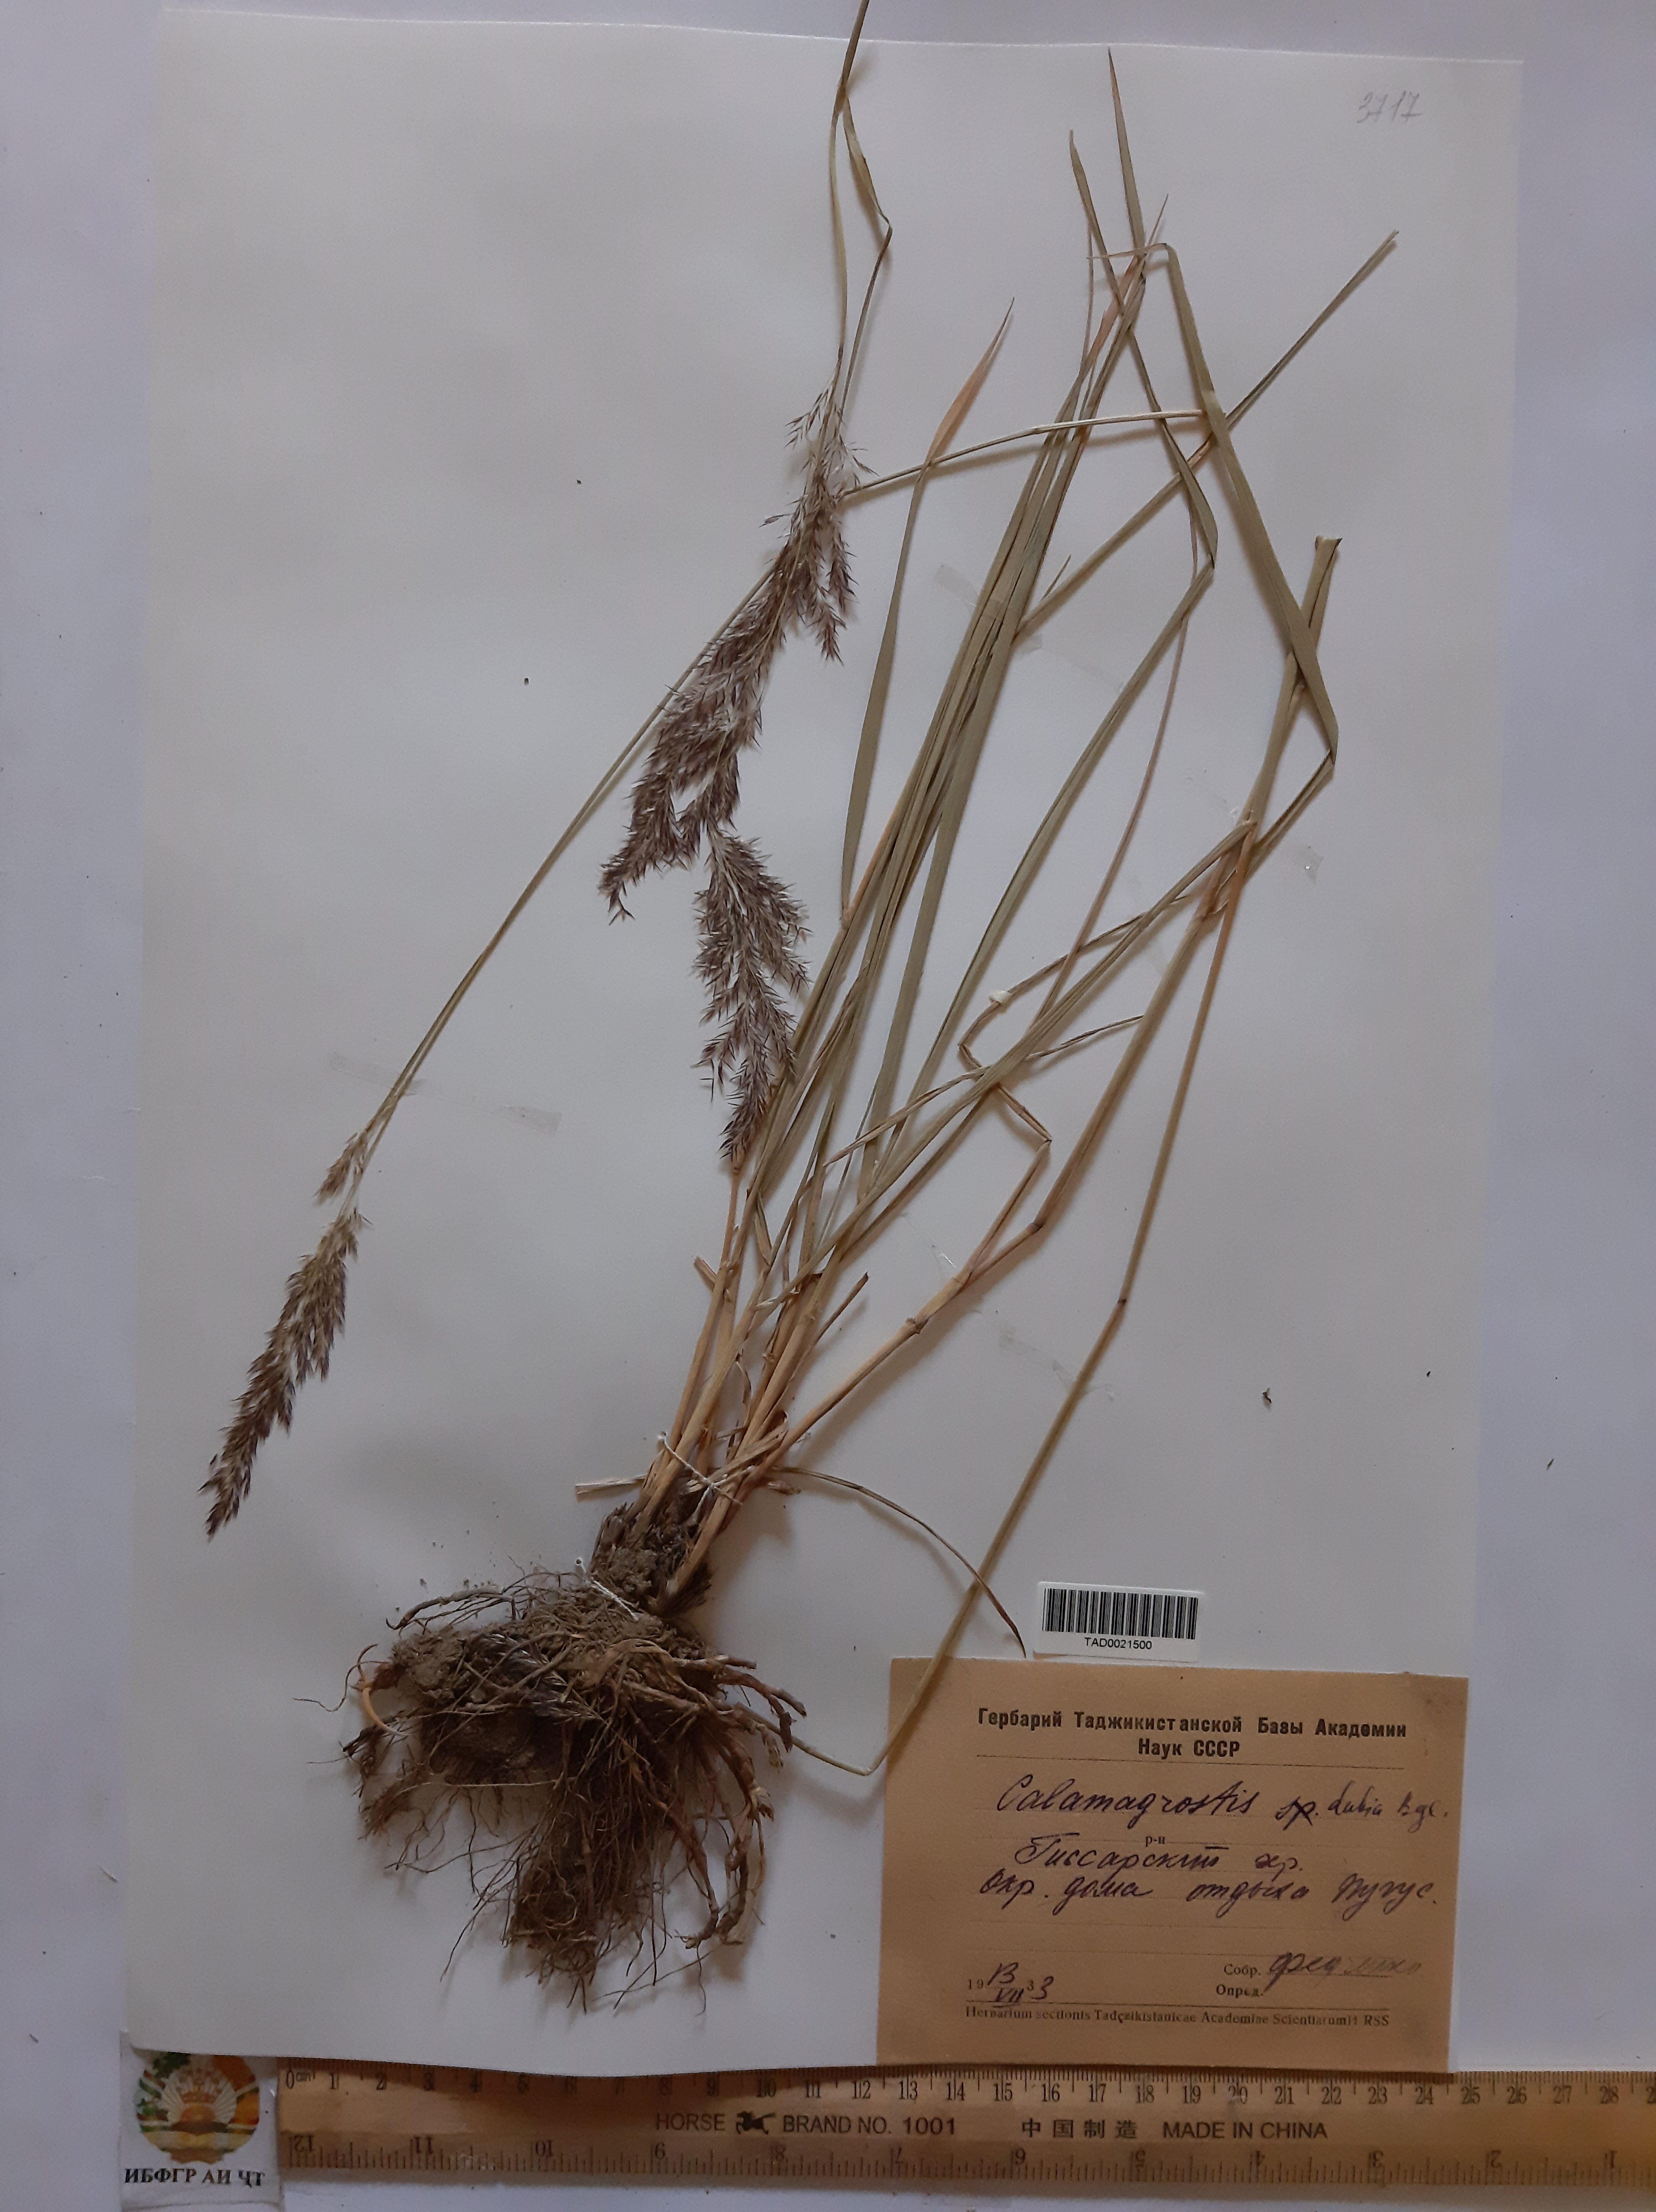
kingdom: Plantae
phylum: Tracheophyta
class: Liliopsida
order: Poales
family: Poaceae
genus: Calamagrostis
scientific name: Calamagrostis pseudophragmites
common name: Coastal small-reed
